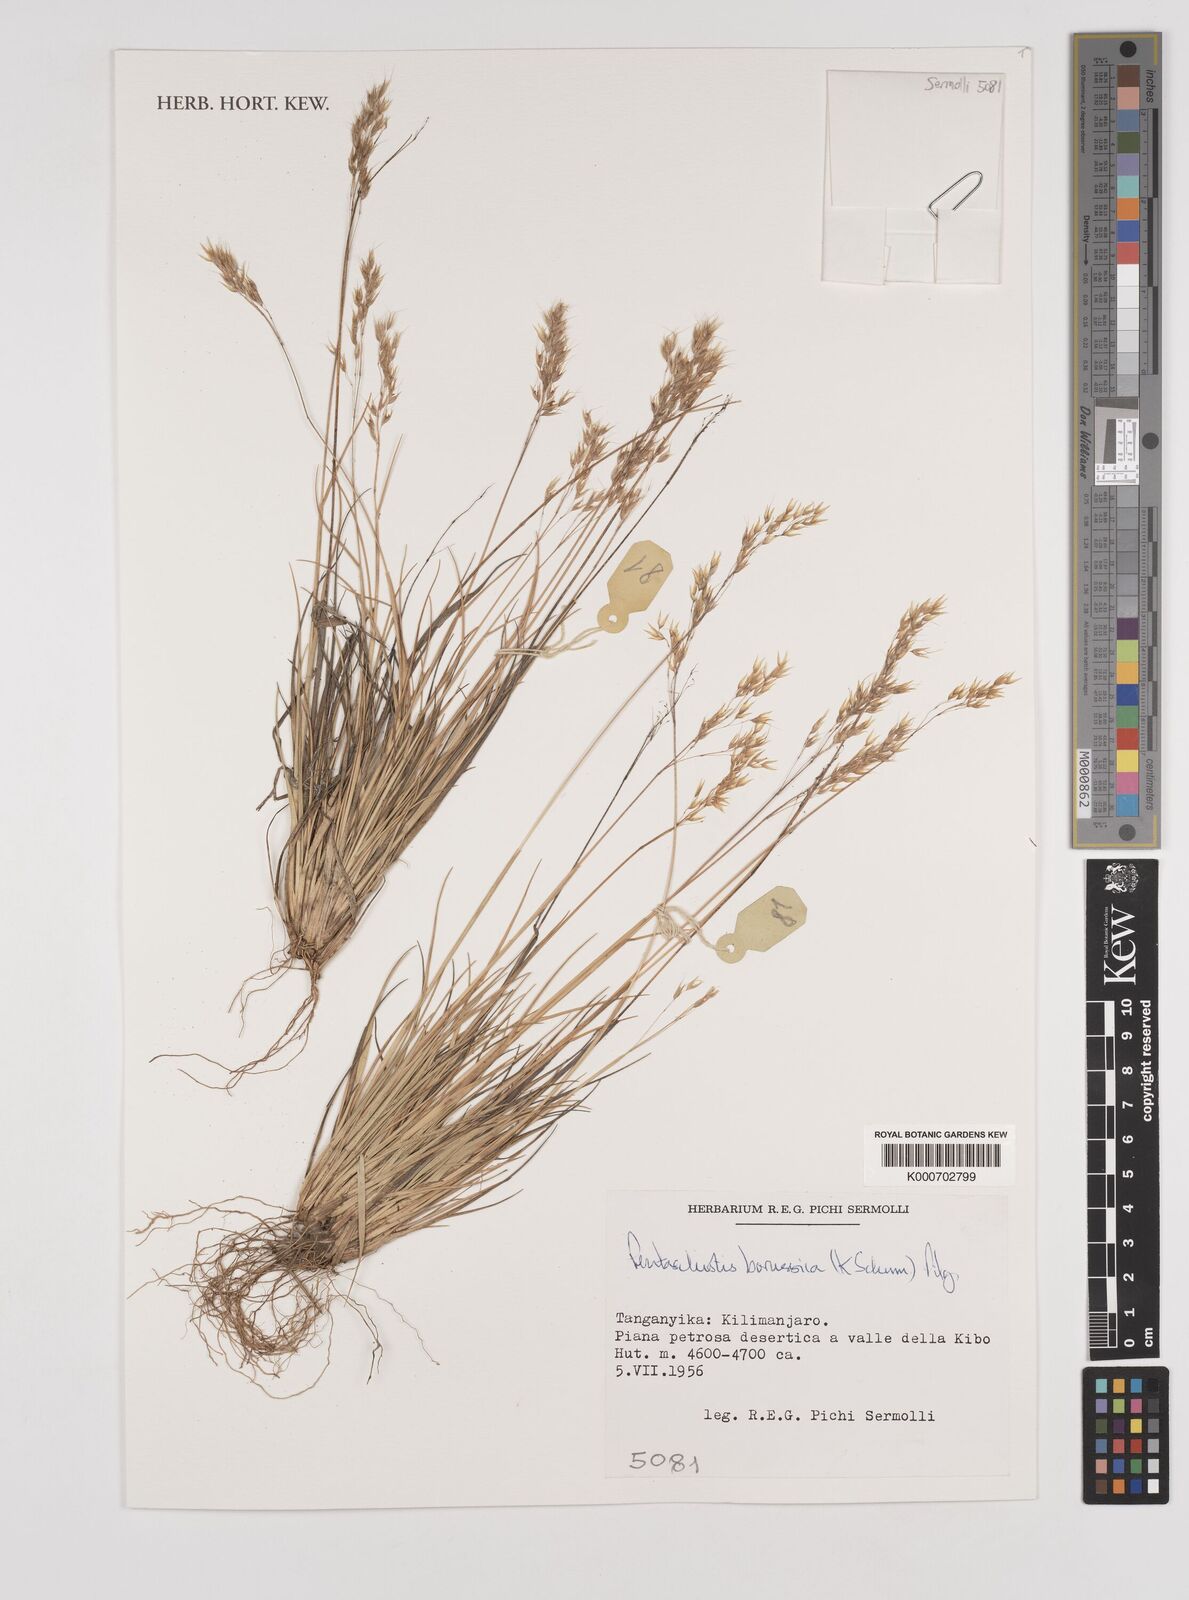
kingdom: Plantae
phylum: Tracheophyta
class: Liliopsida
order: Poales
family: Poaceae
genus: Pentameris
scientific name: Pentameris borussica
